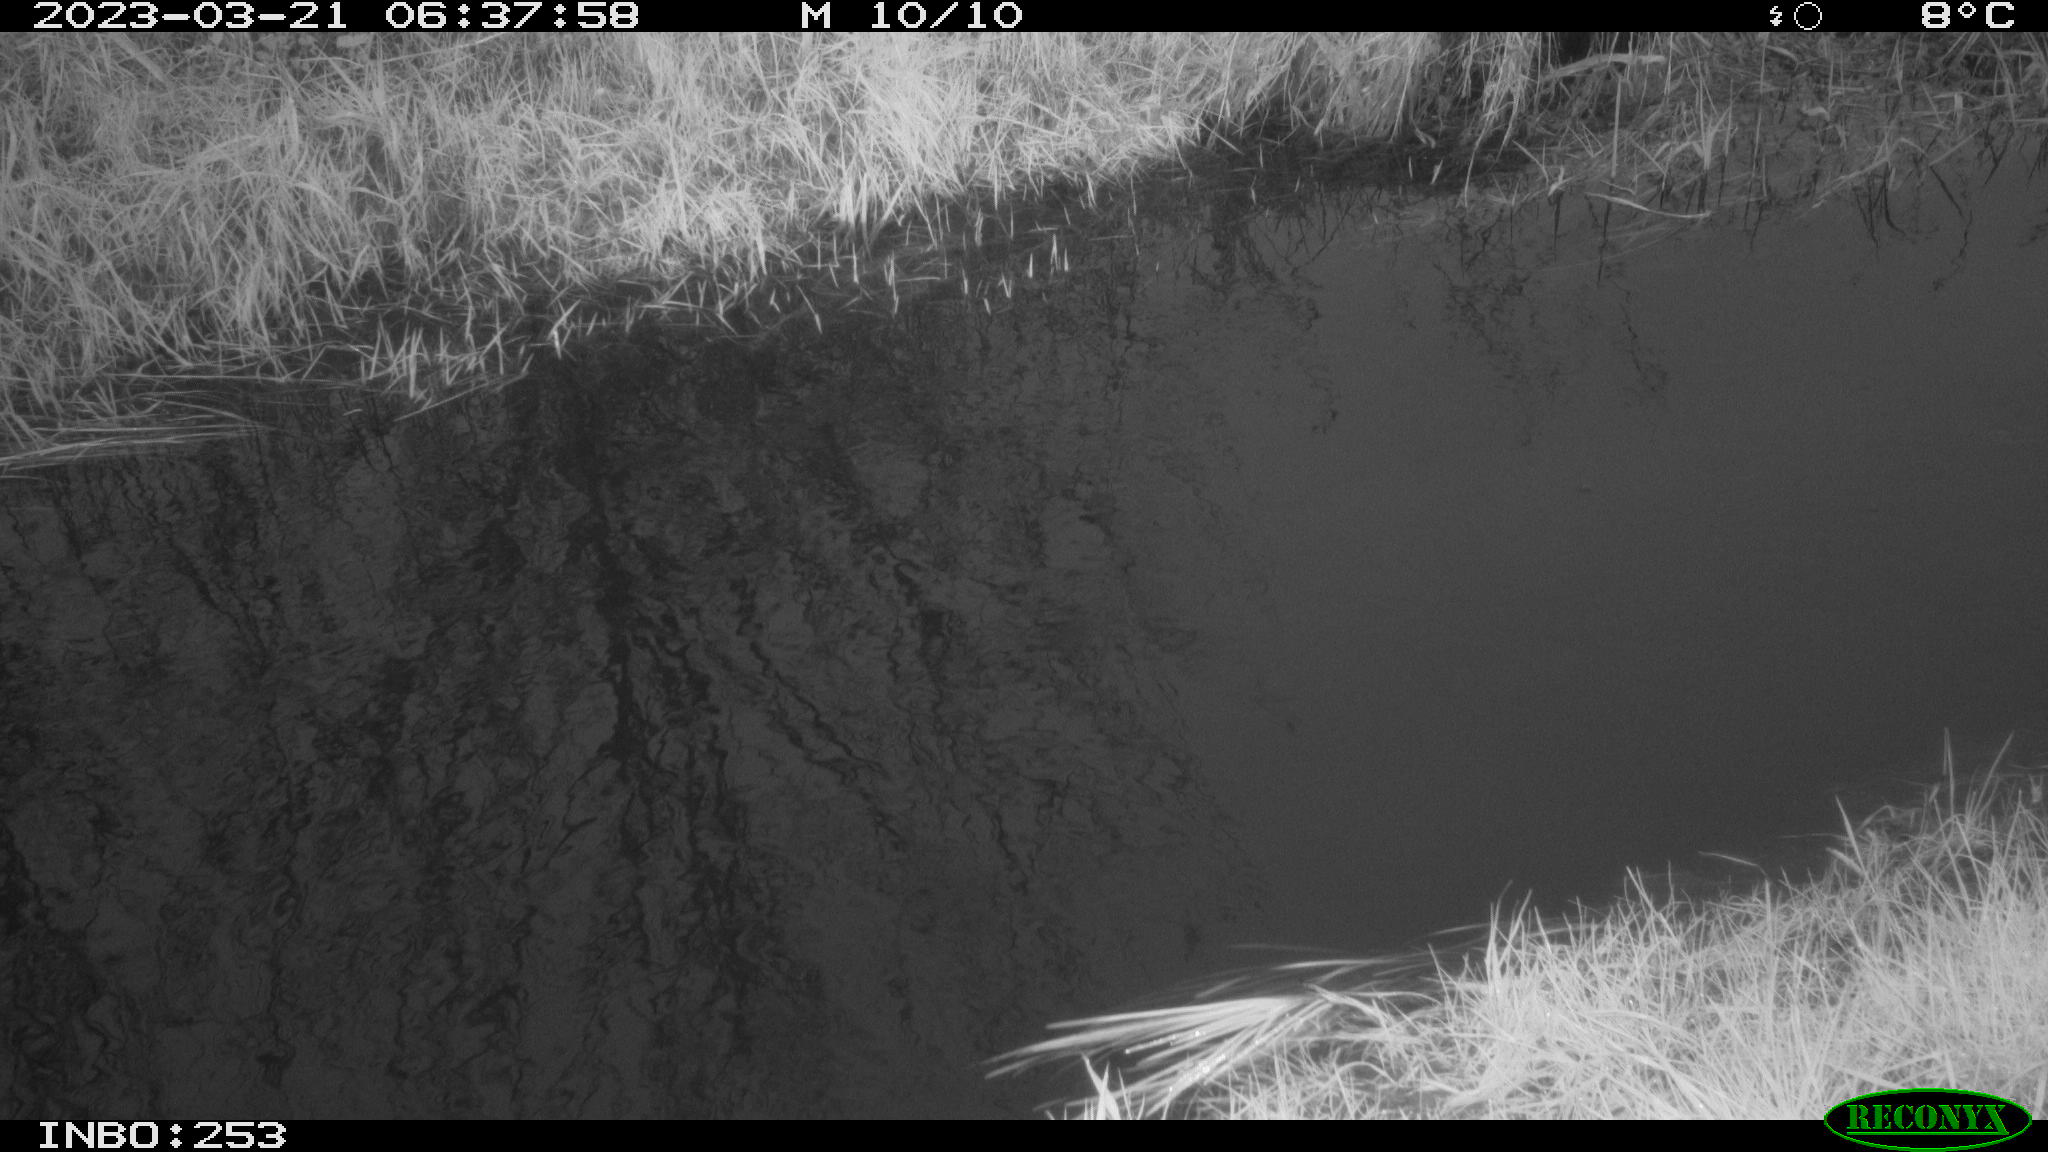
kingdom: Animalia
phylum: Chordata
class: Aves
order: Anseriformes
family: Anatidae
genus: Anas
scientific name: Anas
